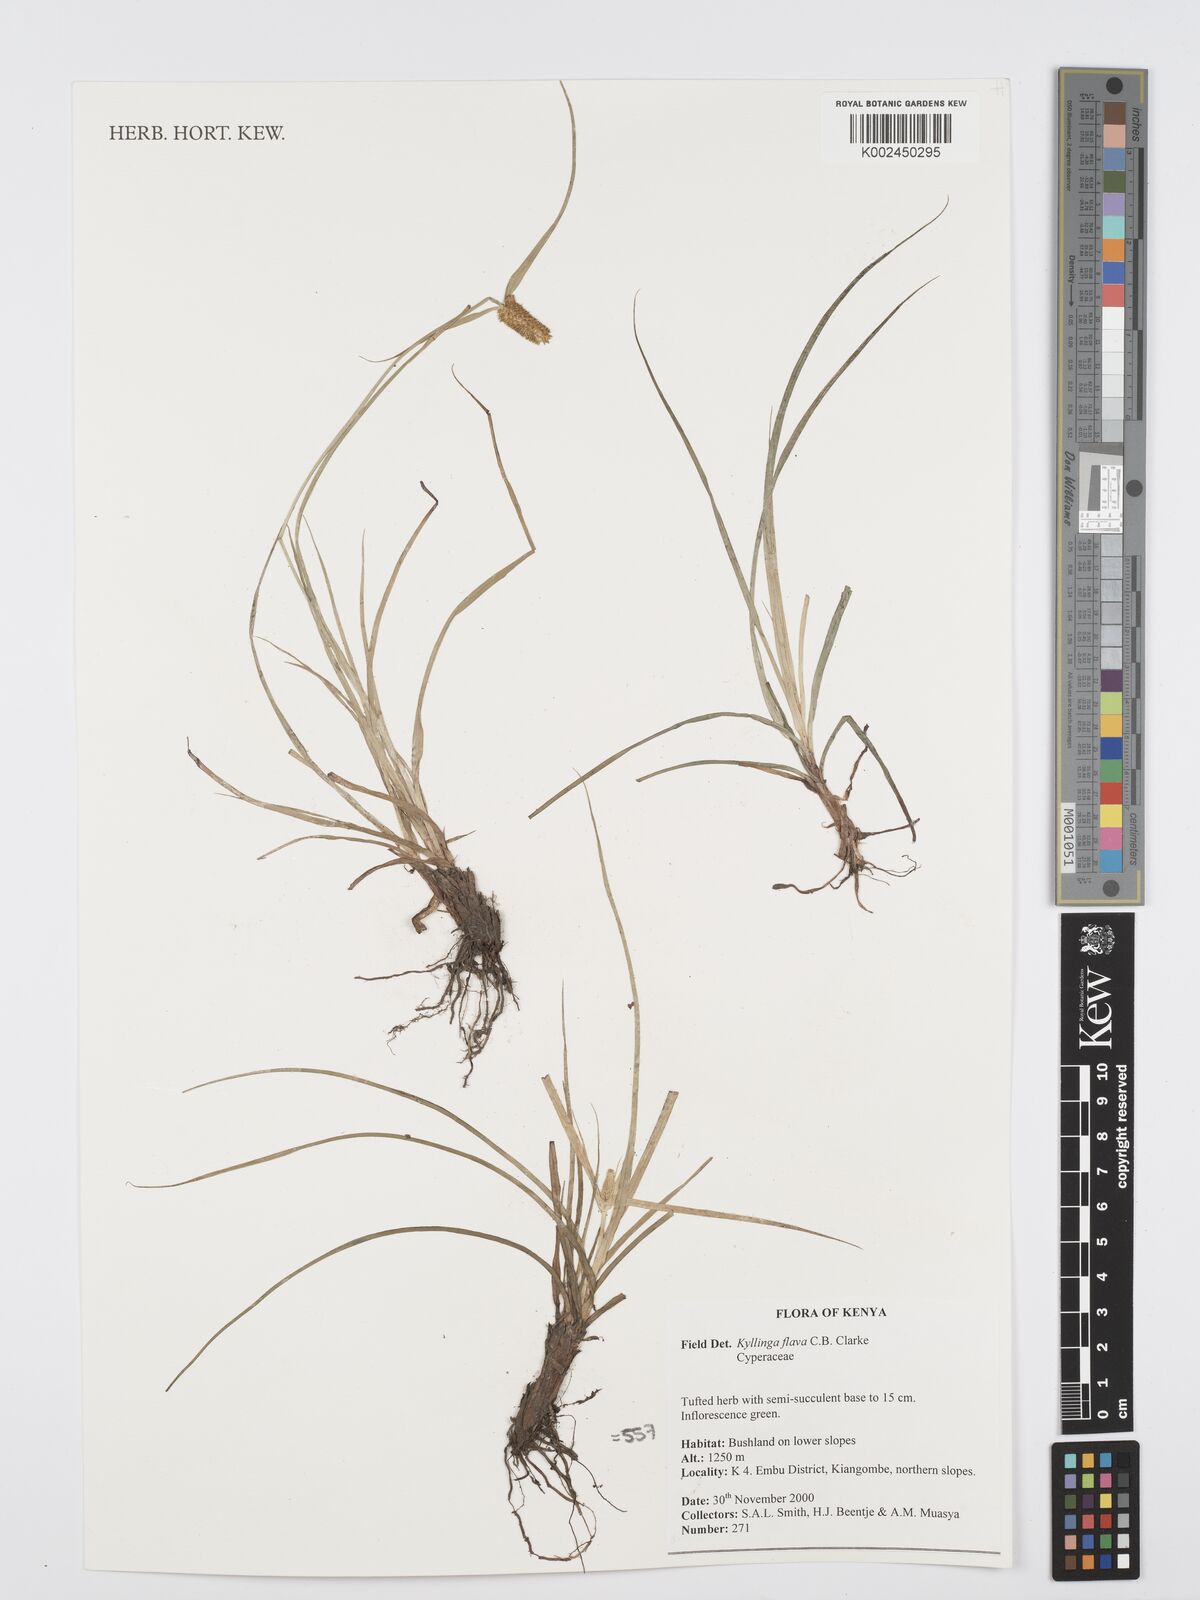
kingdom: Plantae
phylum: Tracheophyta
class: Liliopsida
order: Poales
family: Cyperaceae
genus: Cyperus
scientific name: Cyperus
